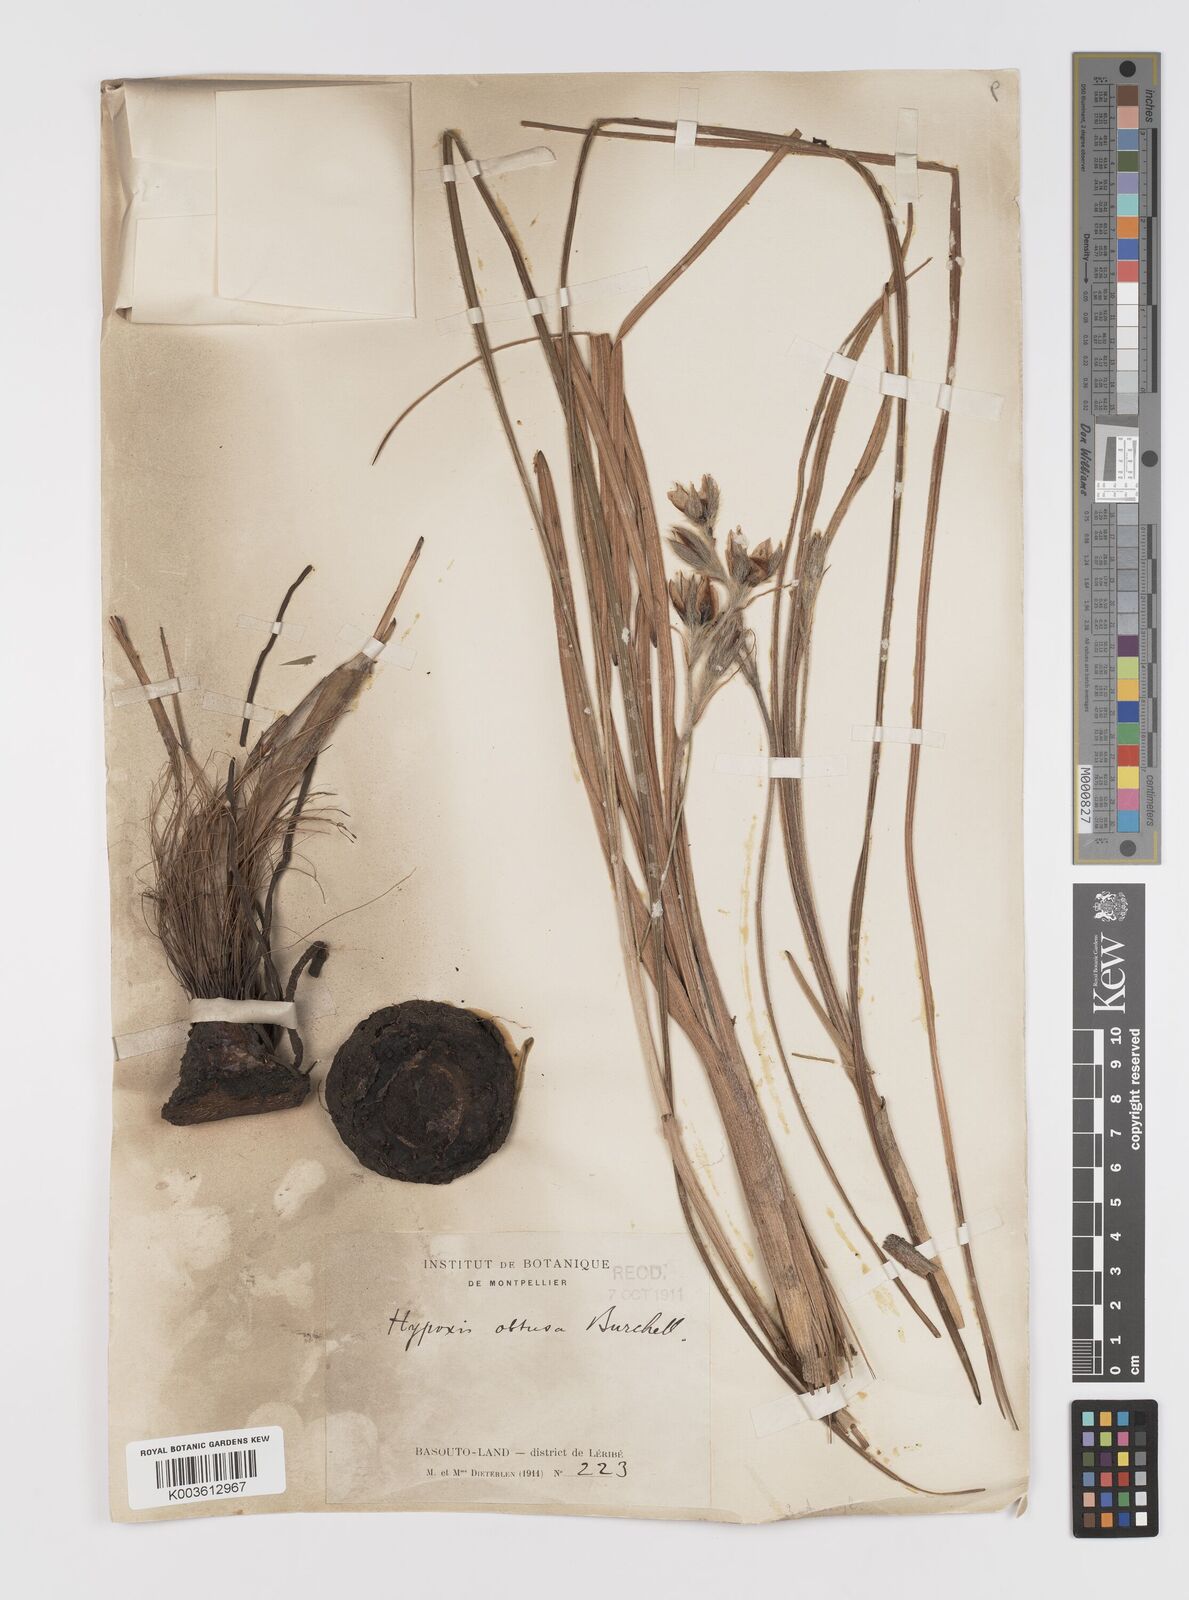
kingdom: Plantae
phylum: Tracheophyta
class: Liliopsida
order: Asparagales
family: Hypoxidaceae
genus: Hypoxis
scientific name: Hypoxis rigidula
